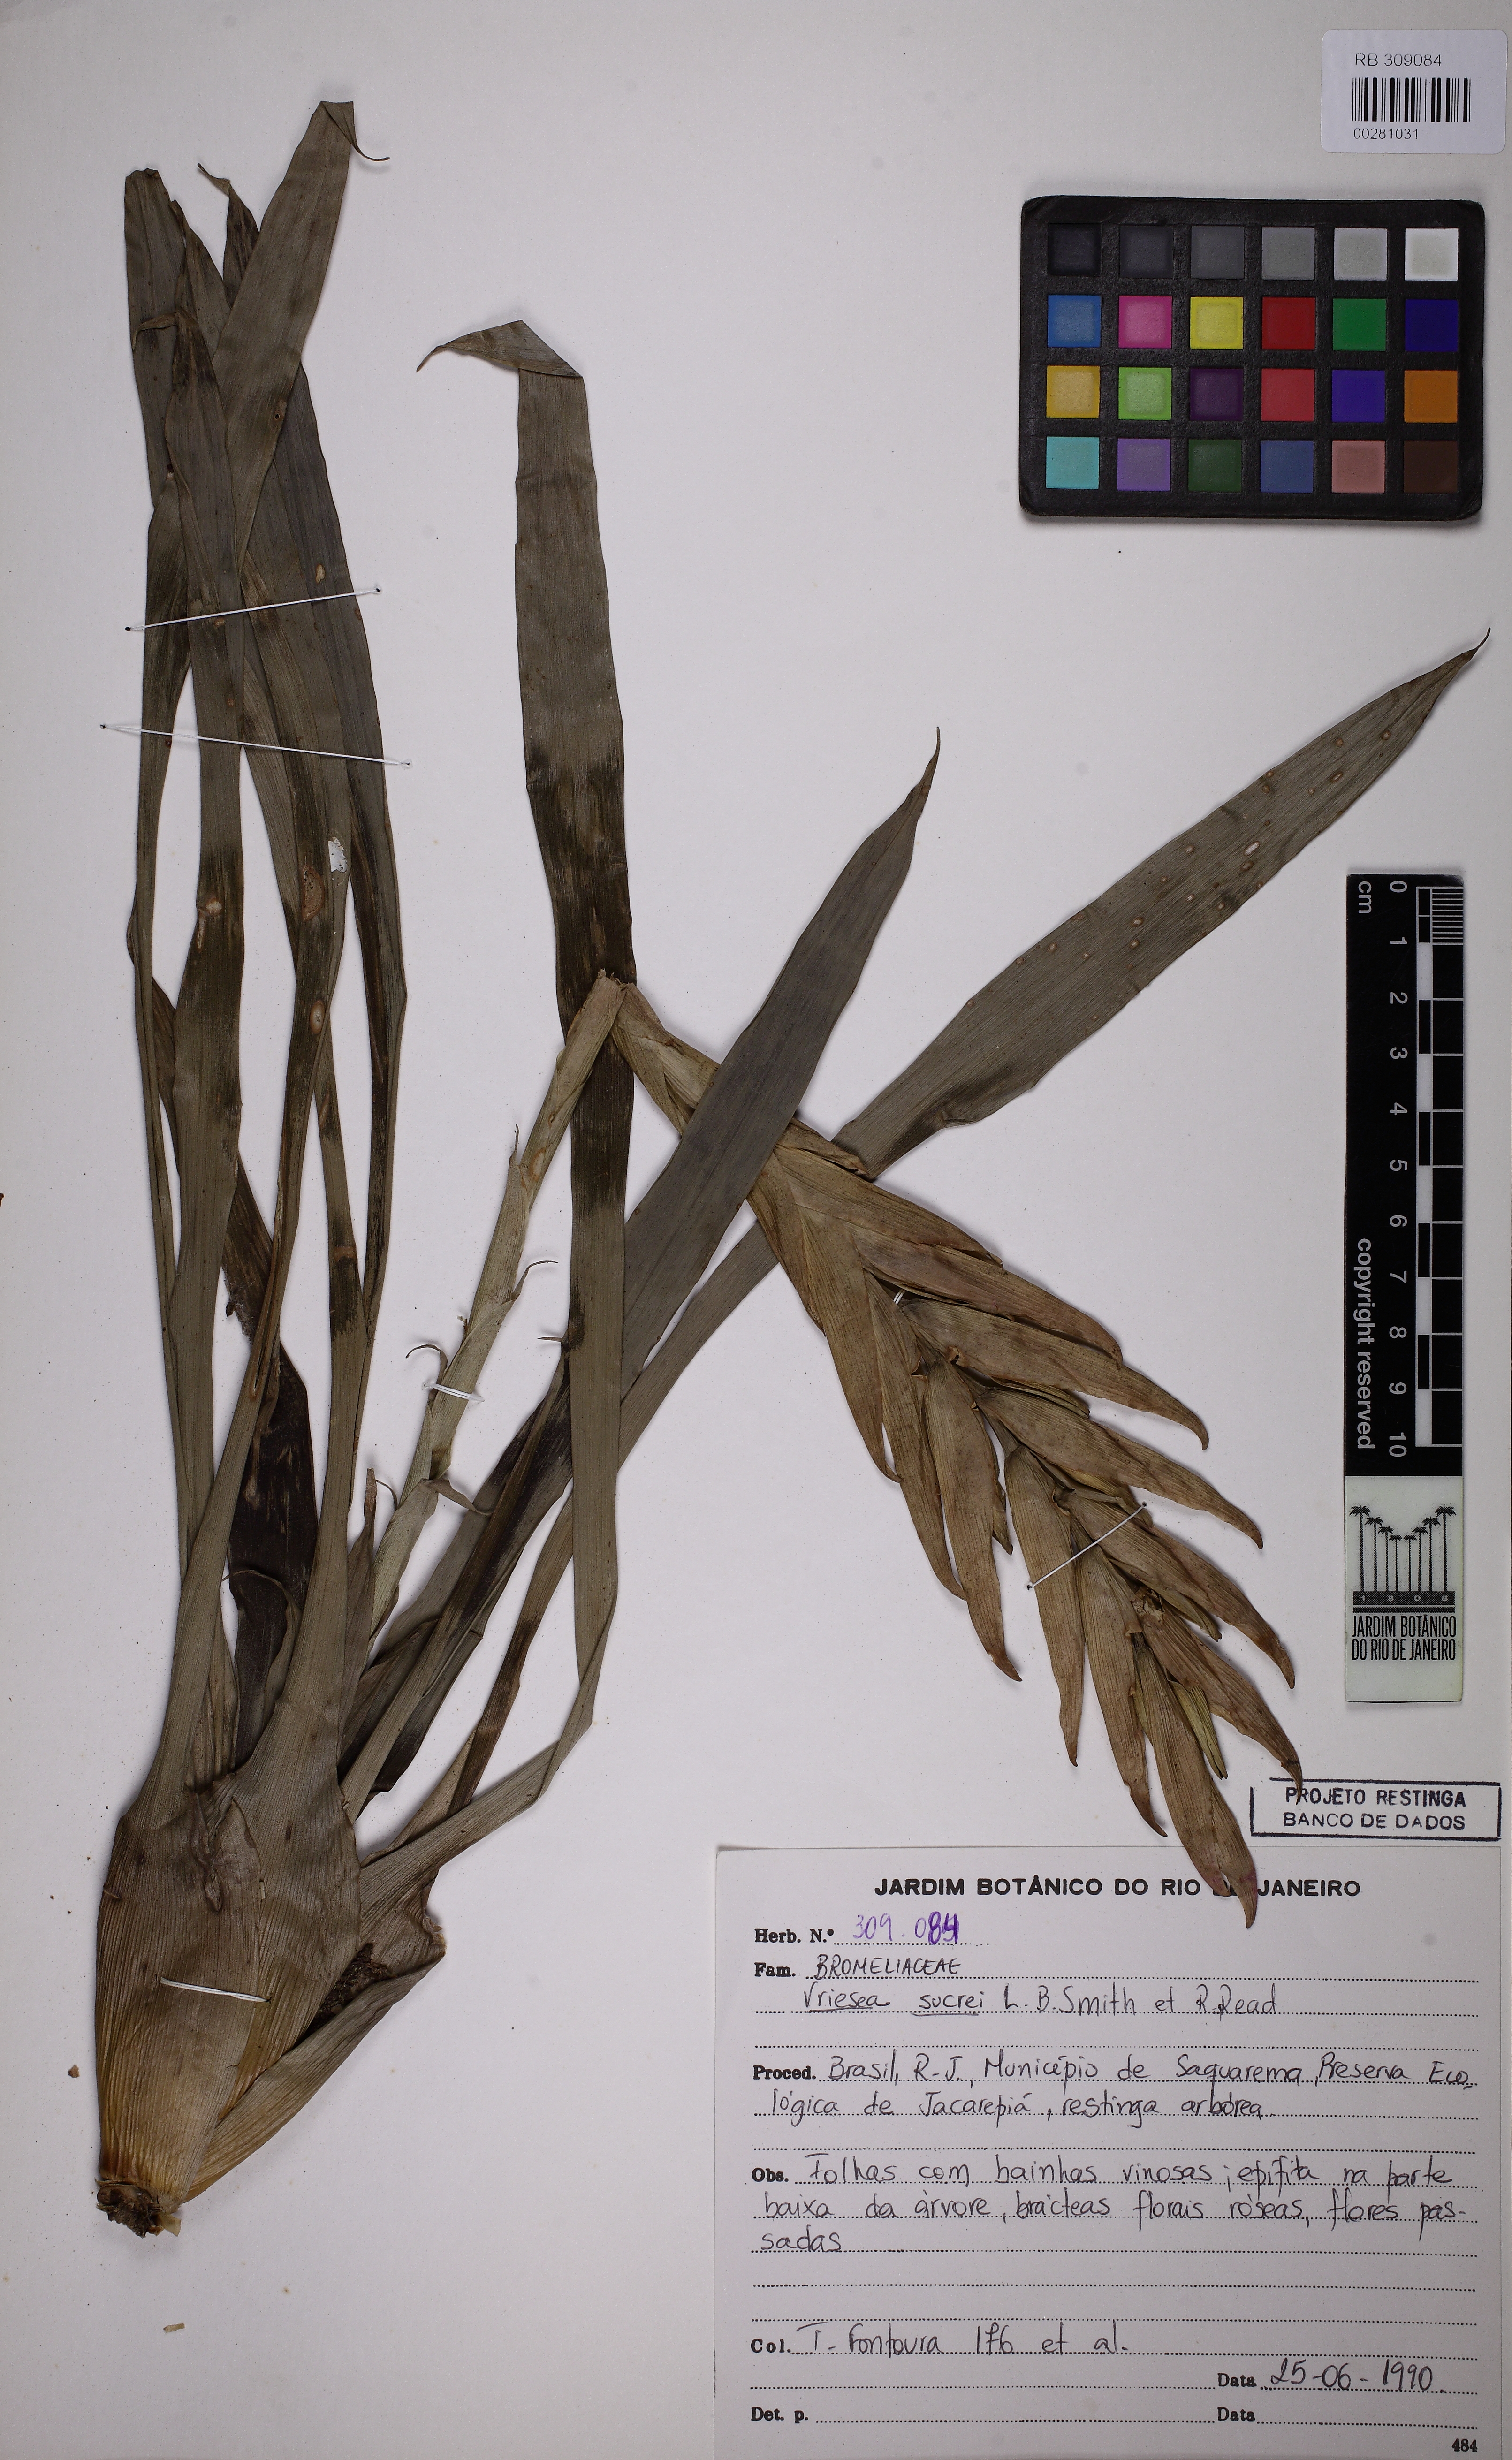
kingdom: Plantae
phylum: Tracheophyta
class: Liliopsida
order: Poales
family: Bromeliaceae
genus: Vriesea
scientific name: Vriesea simplex
